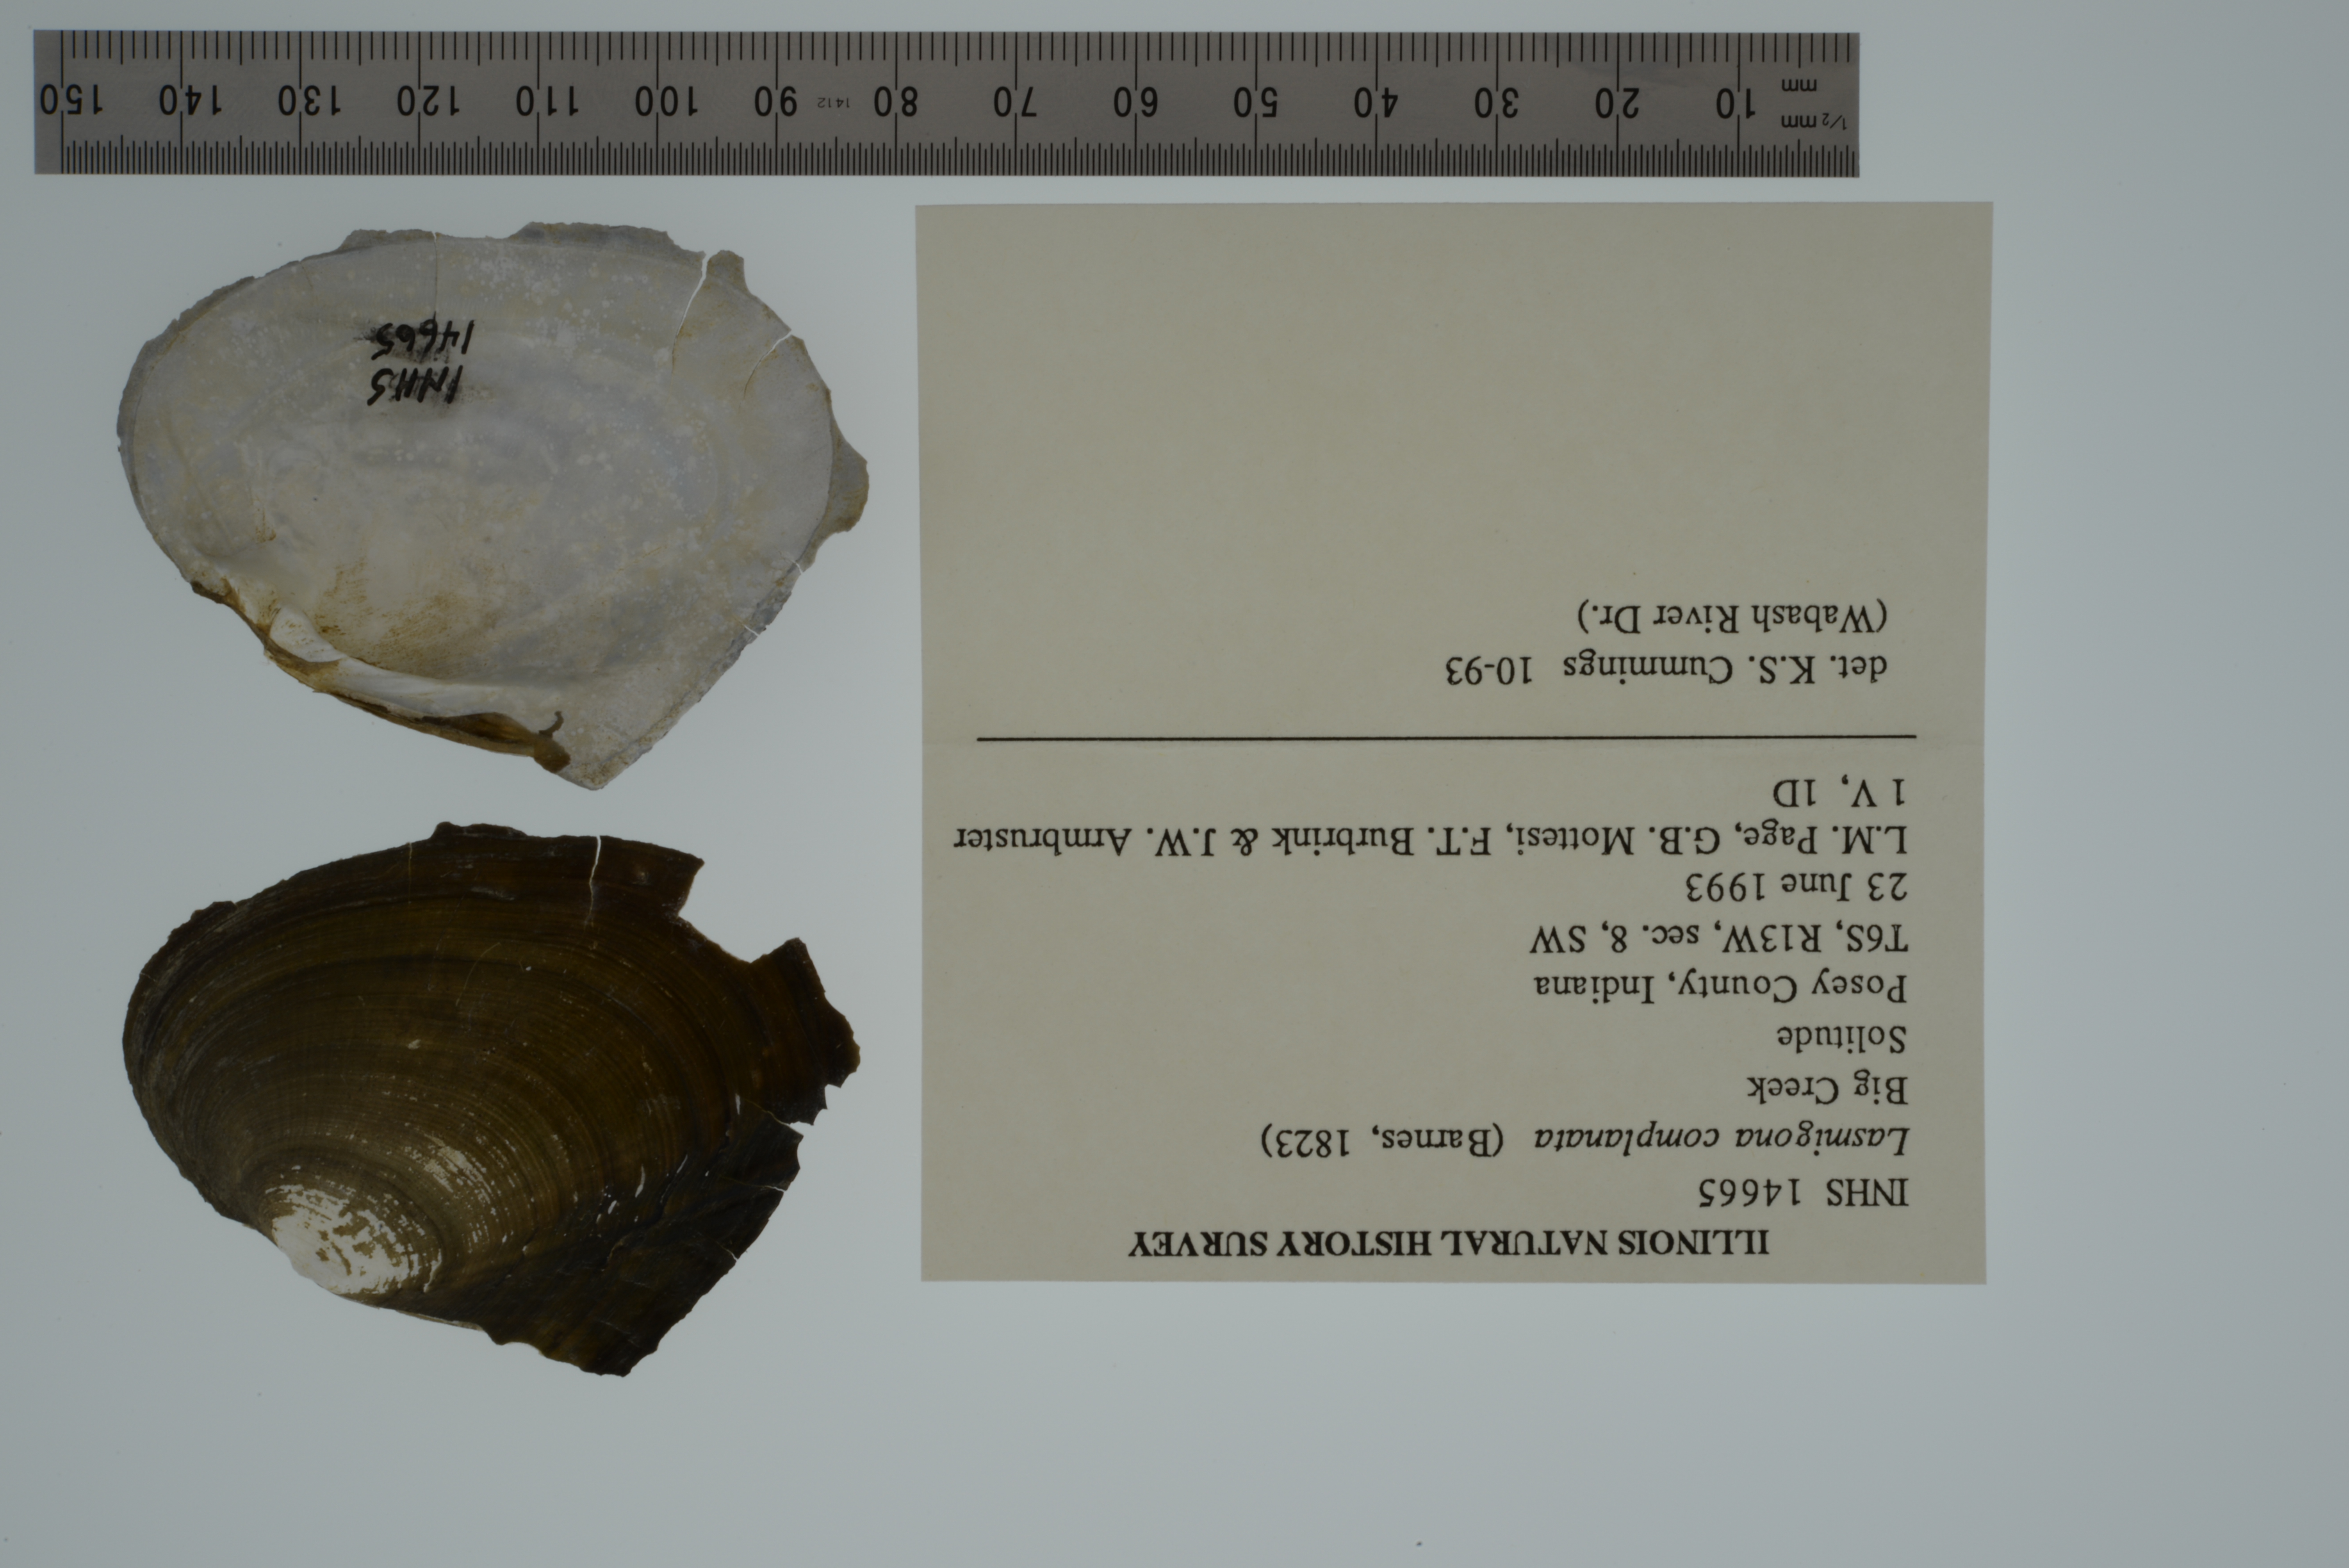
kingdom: Animalia
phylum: Mollusca
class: Bivalvia
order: Unionida
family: Unionidae
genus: Lasmigona
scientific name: Lasmigona complanata
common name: White heelsplitter
